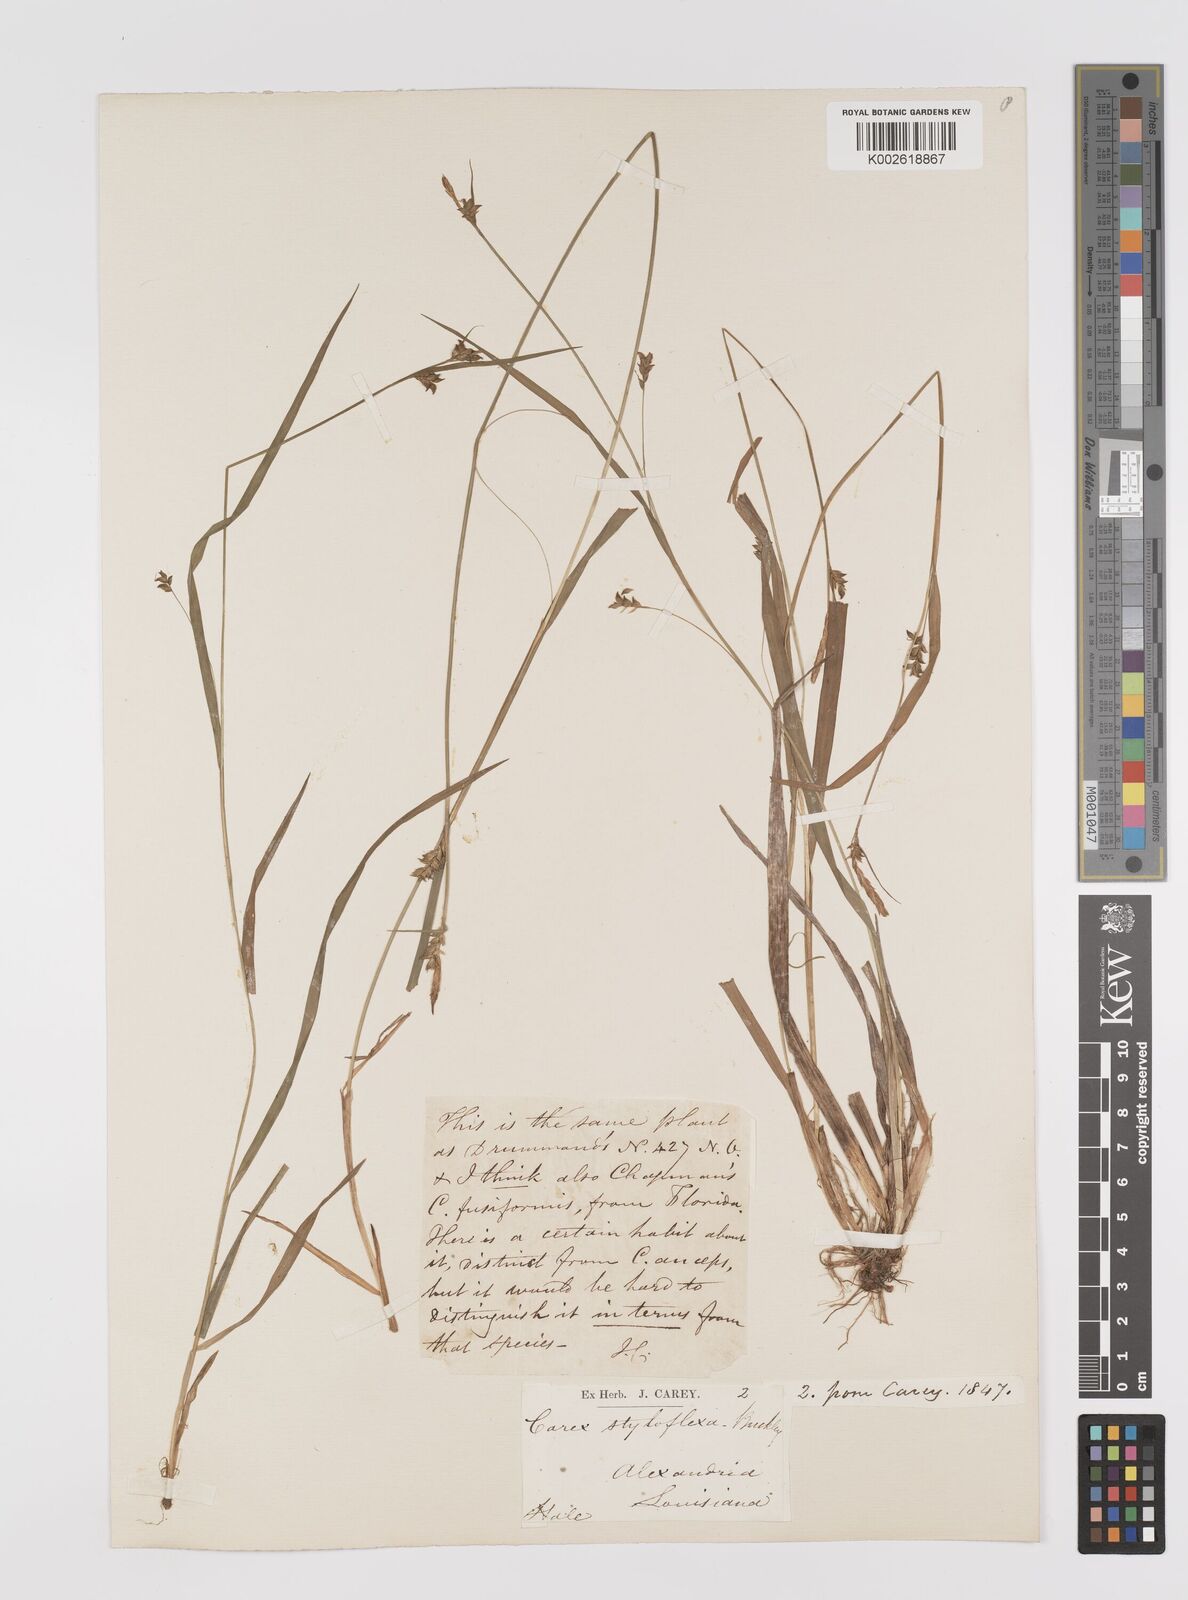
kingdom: Plantae
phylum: Tracheophyta
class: Liliopsida
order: Poales
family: Cyperaceae
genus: Carex
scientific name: Carex styloflexa
